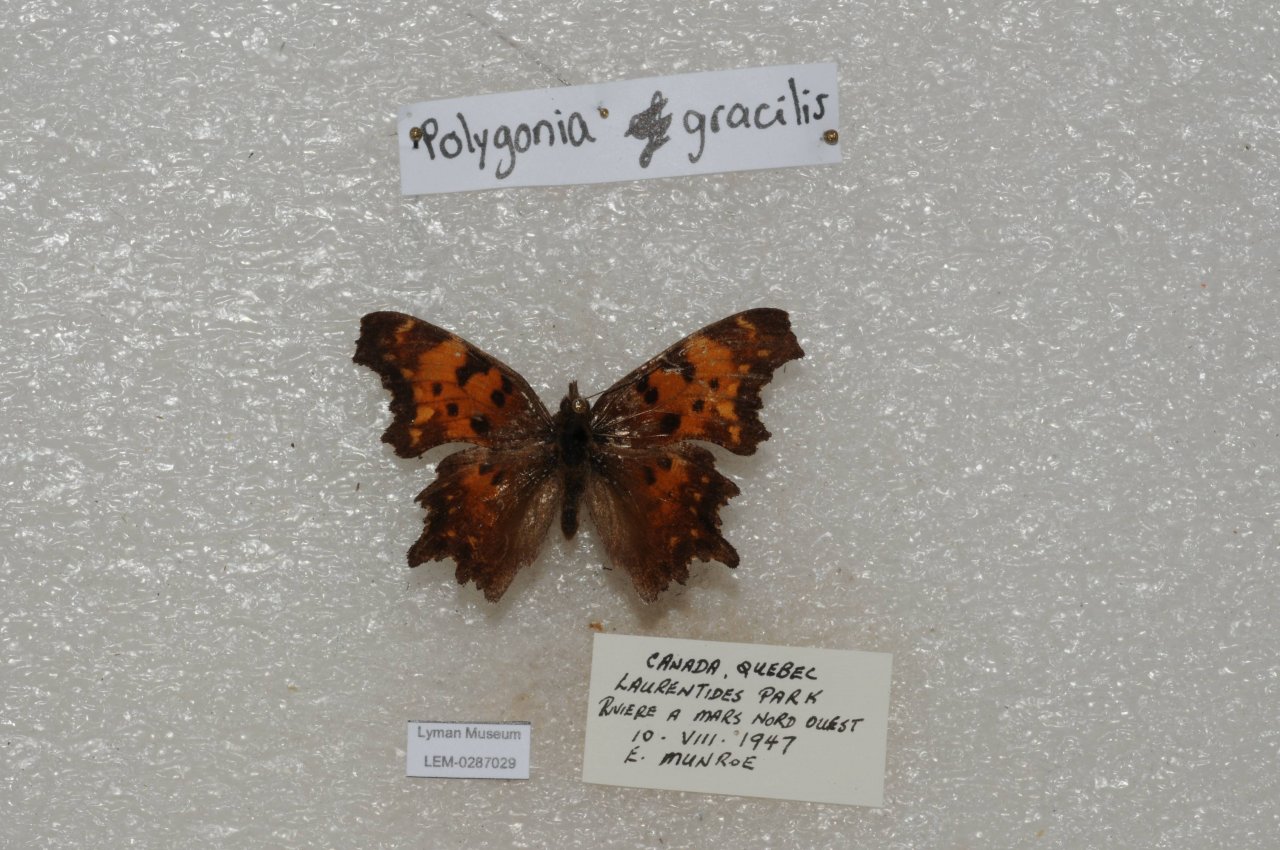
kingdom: Animalia
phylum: Arthropoda
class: Insecta
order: Lepidoptera
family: Nymphalidae
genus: Polygonia
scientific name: Polygonia gracilis
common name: Hoary Comma
